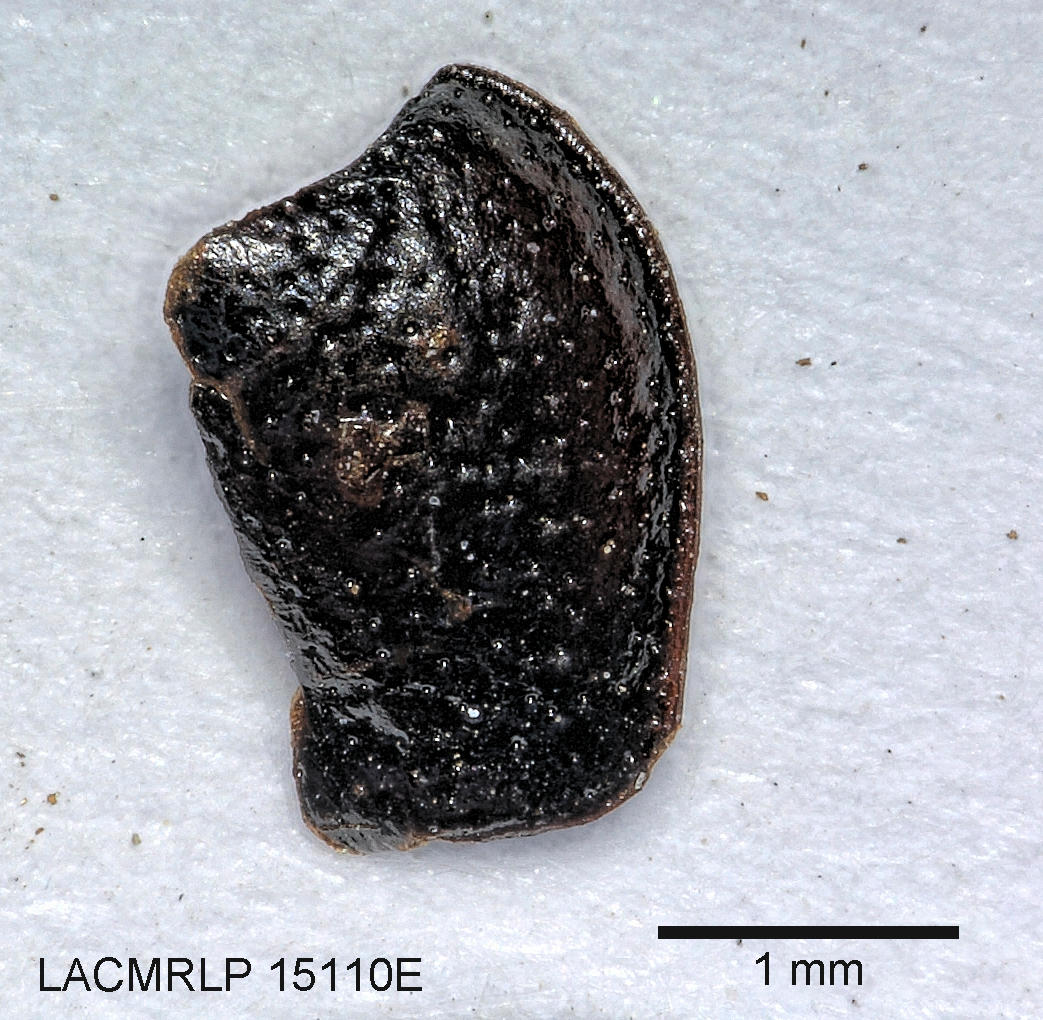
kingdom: Animalia
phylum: Arthropoda
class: Insecta
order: Coleoptera
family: Carabidae
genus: Dicheirus
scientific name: Dicheirus
